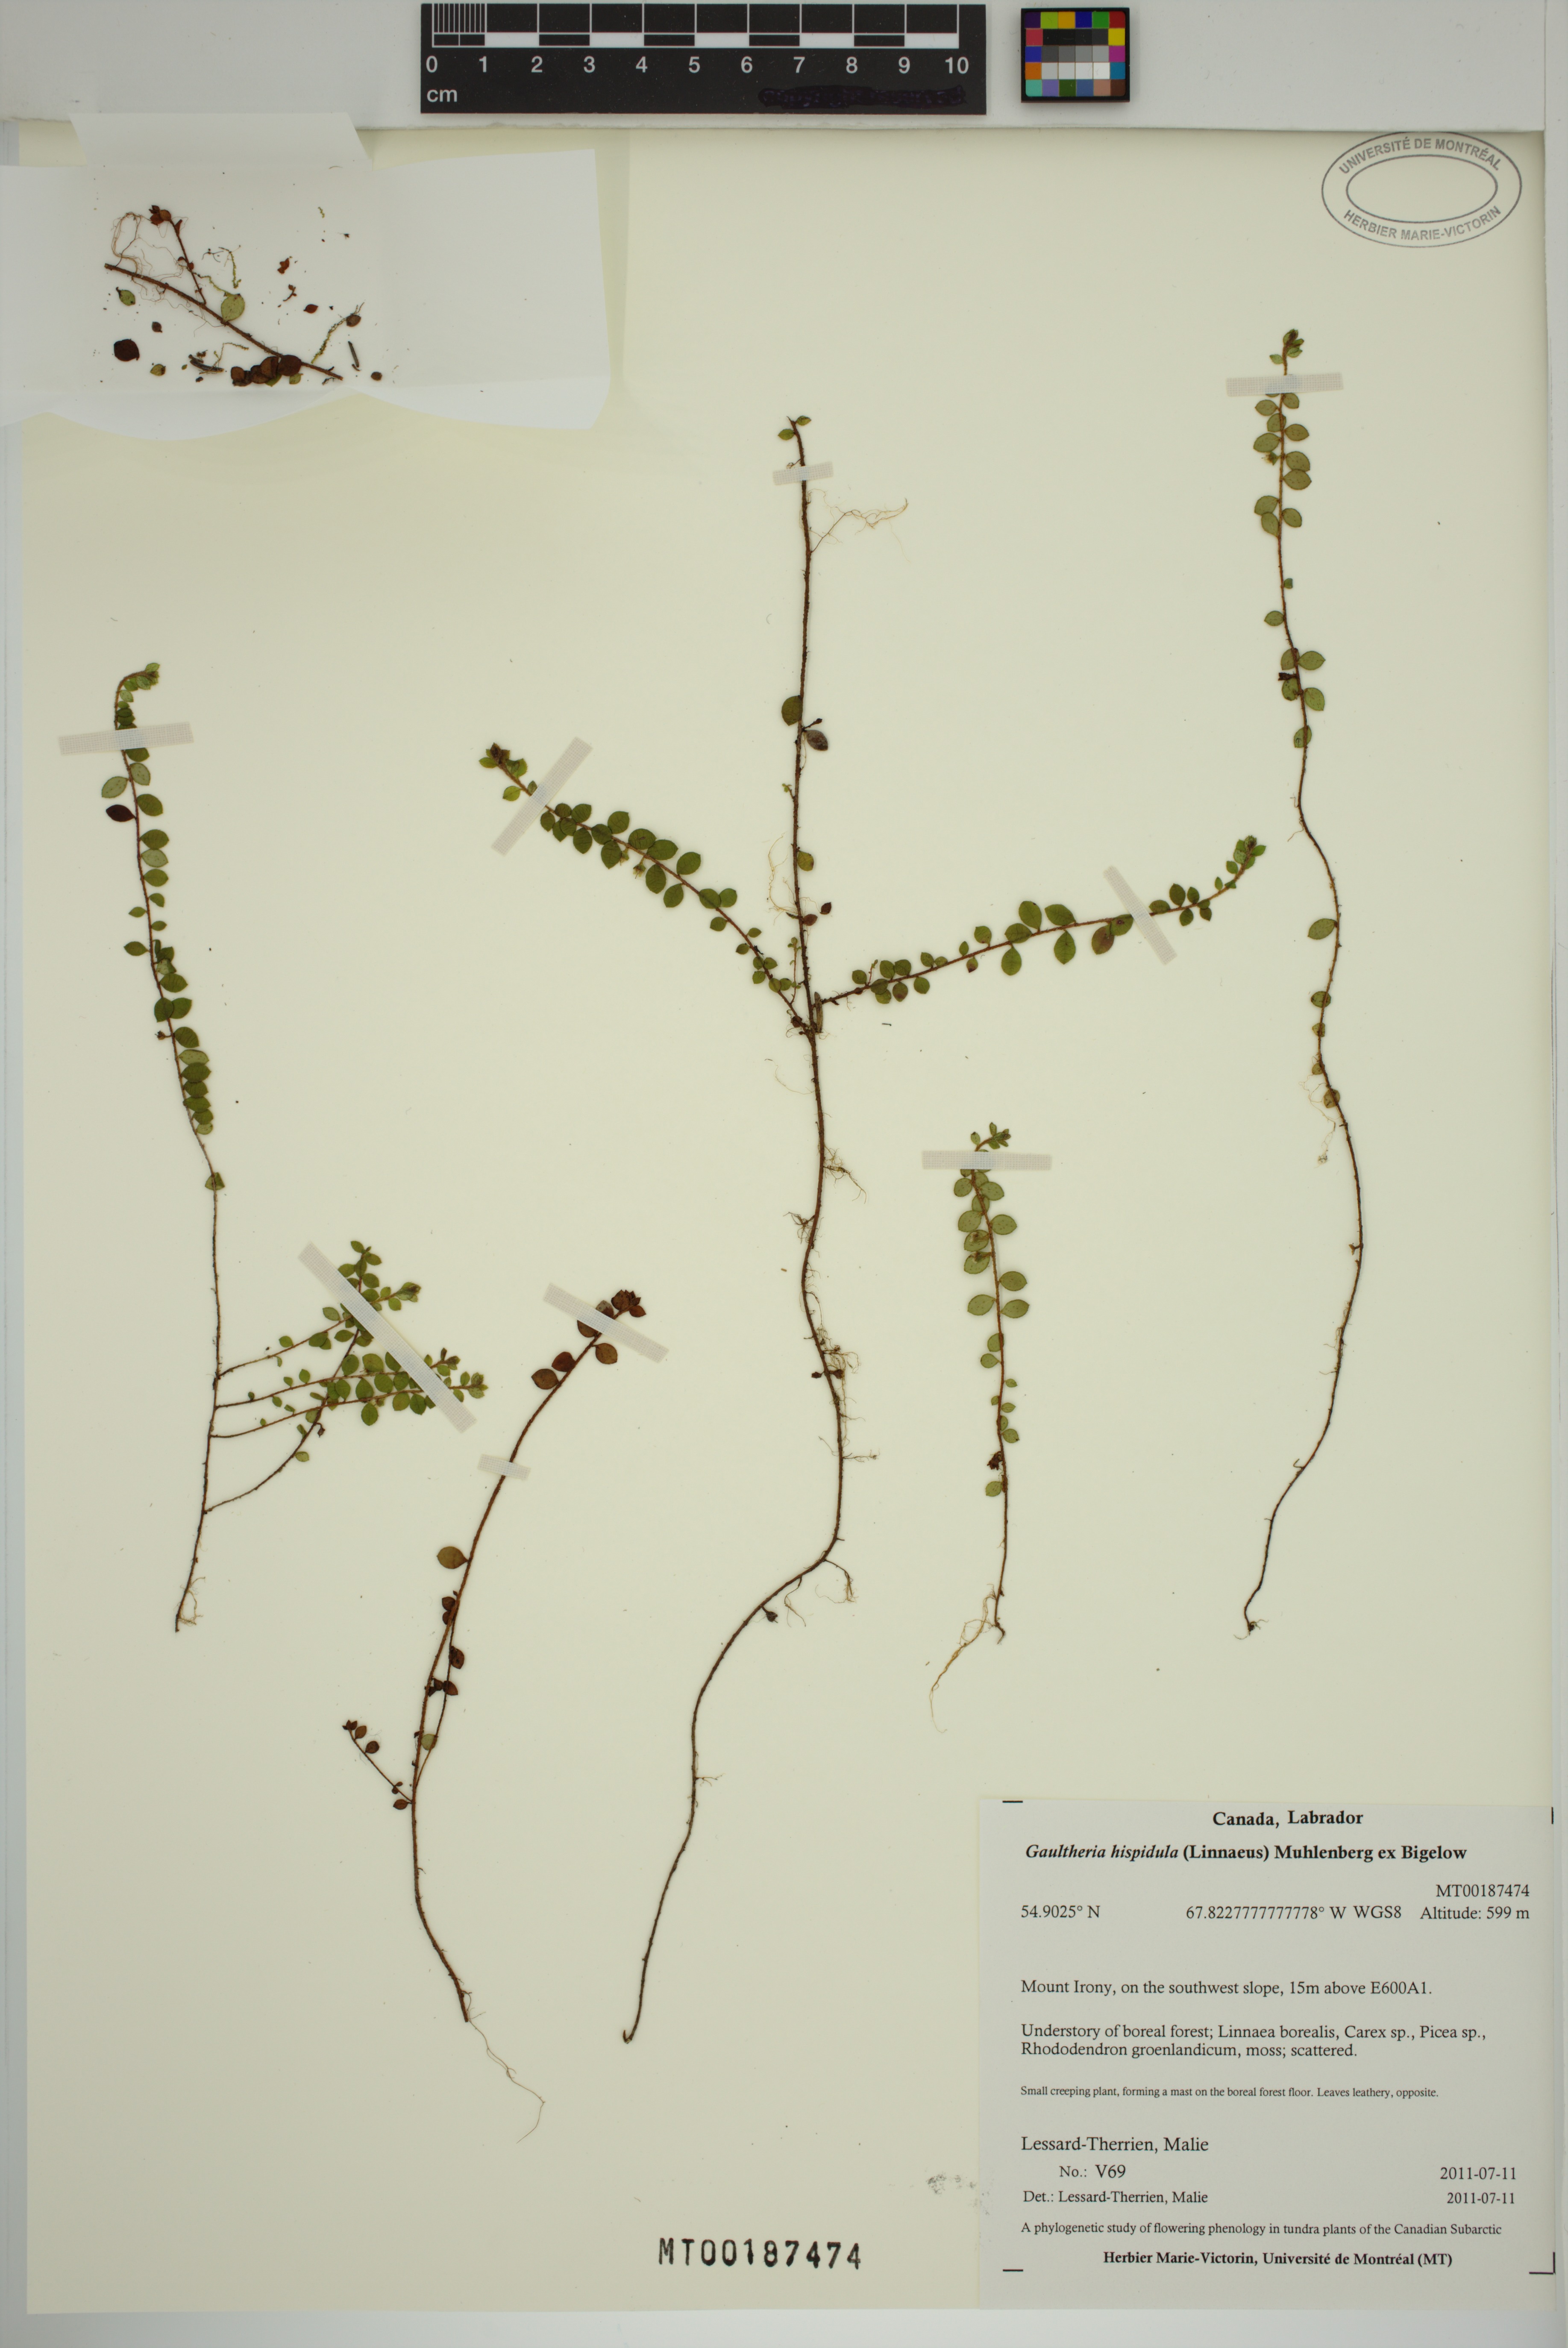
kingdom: Plantae
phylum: Tracheophyta
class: Magnoliopsida
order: Ericales
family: Ericaceae
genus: Gaultheria
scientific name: Gaultheria hispidula
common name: Cancer wintergreen
